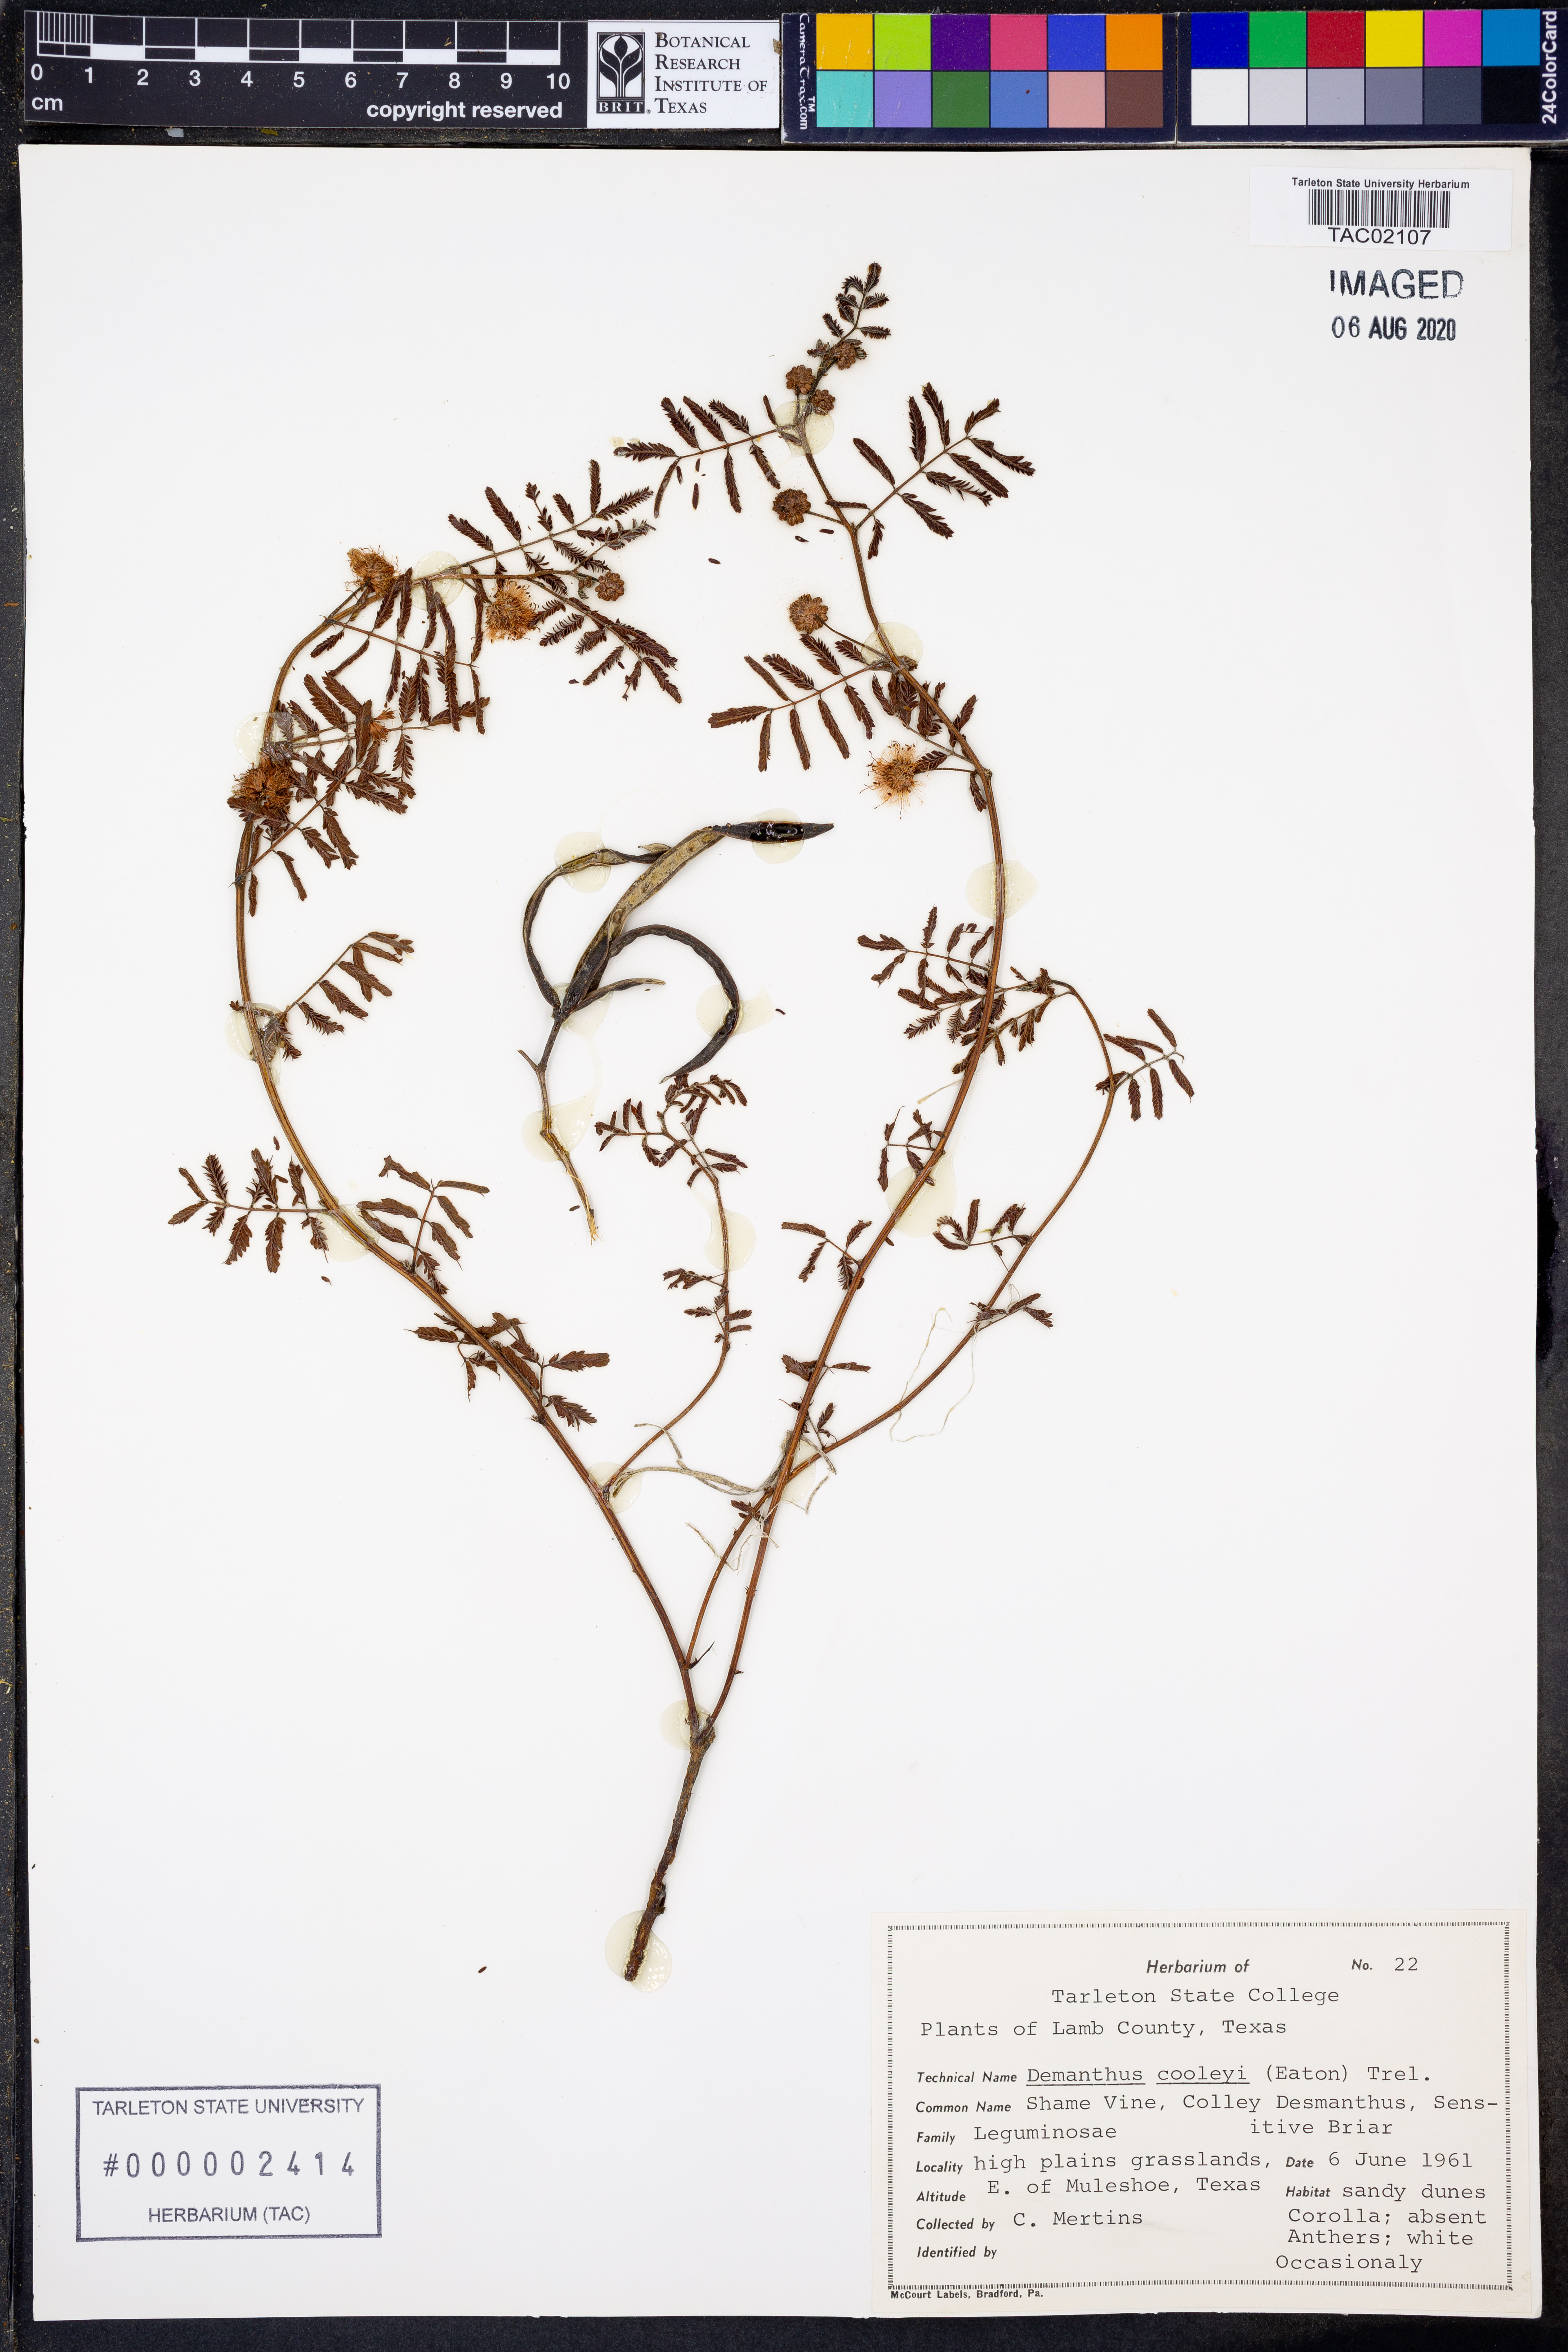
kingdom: Plantae
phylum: Tracheophyta
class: Magnoliopsida
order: Fabales
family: Fabaceae
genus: Desmanthus
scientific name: Desmanthus cooleyi
